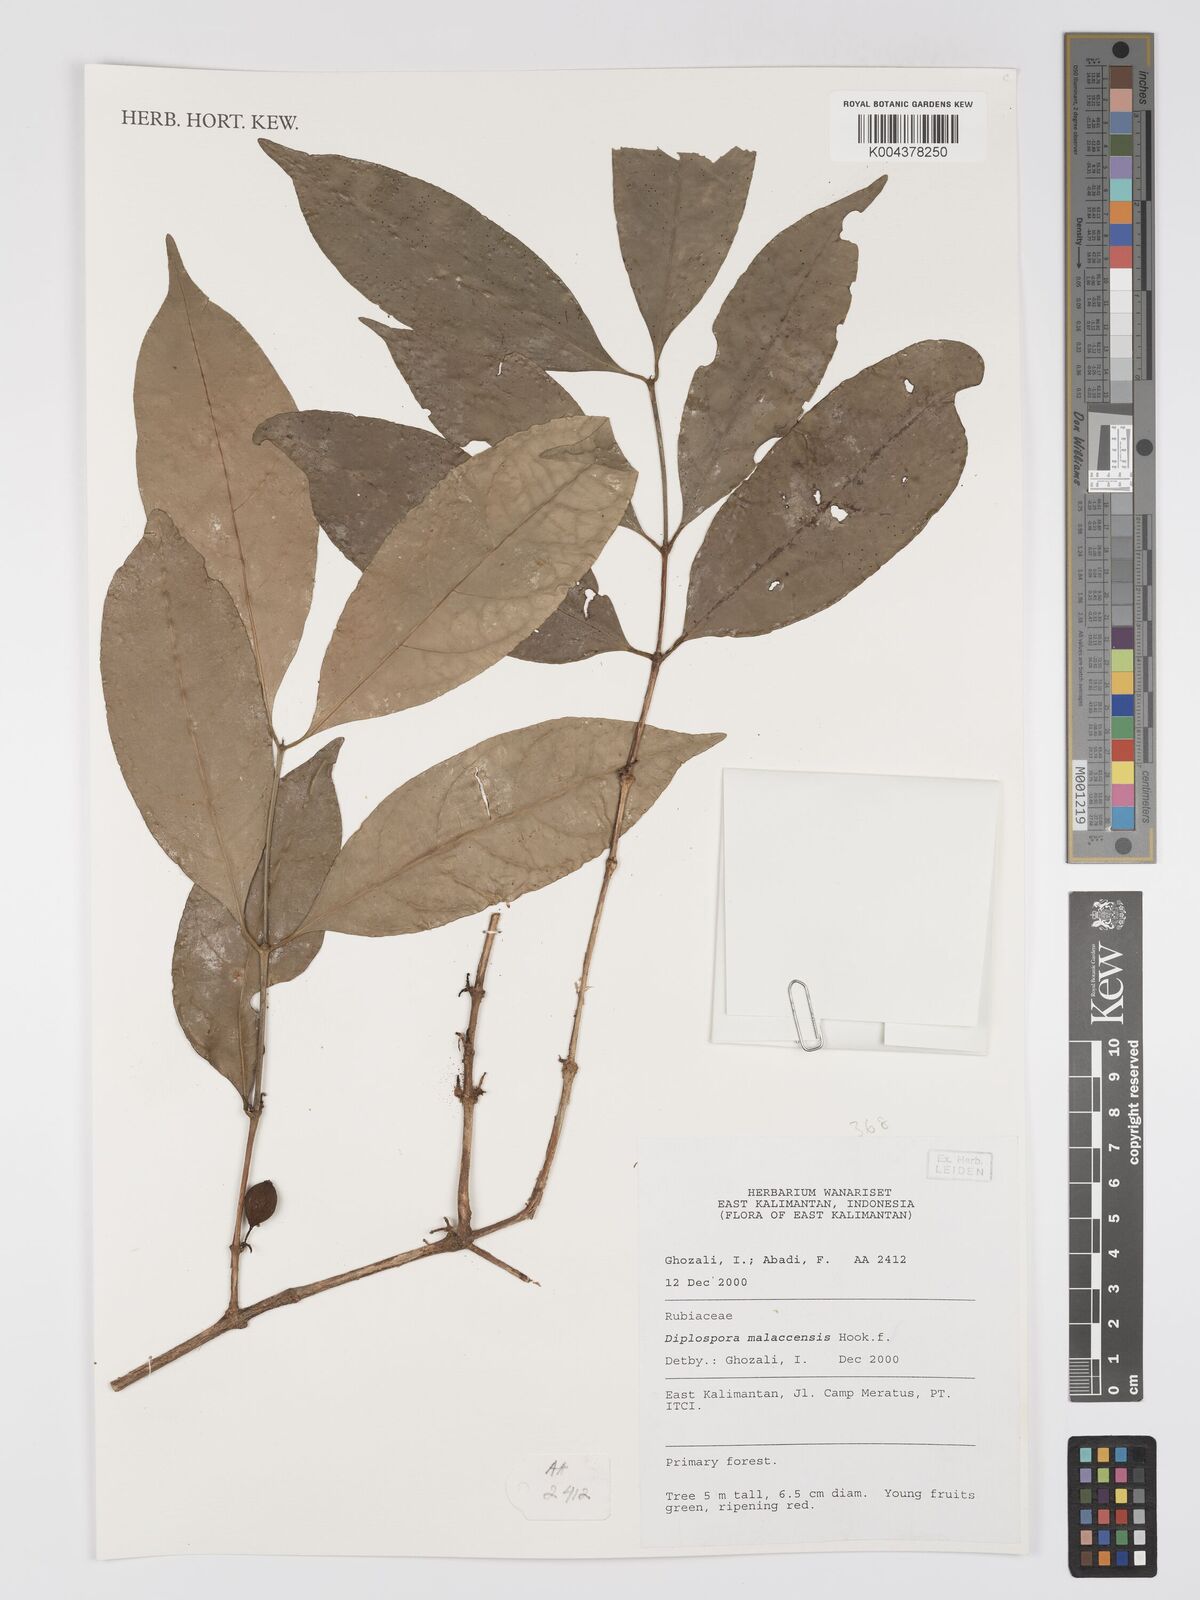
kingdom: Plantae
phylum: Tracheophyta
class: Magnoliopsida
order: Gentianales
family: Rubiaceae
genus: Discospermum
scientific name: Discospermum malaccense
